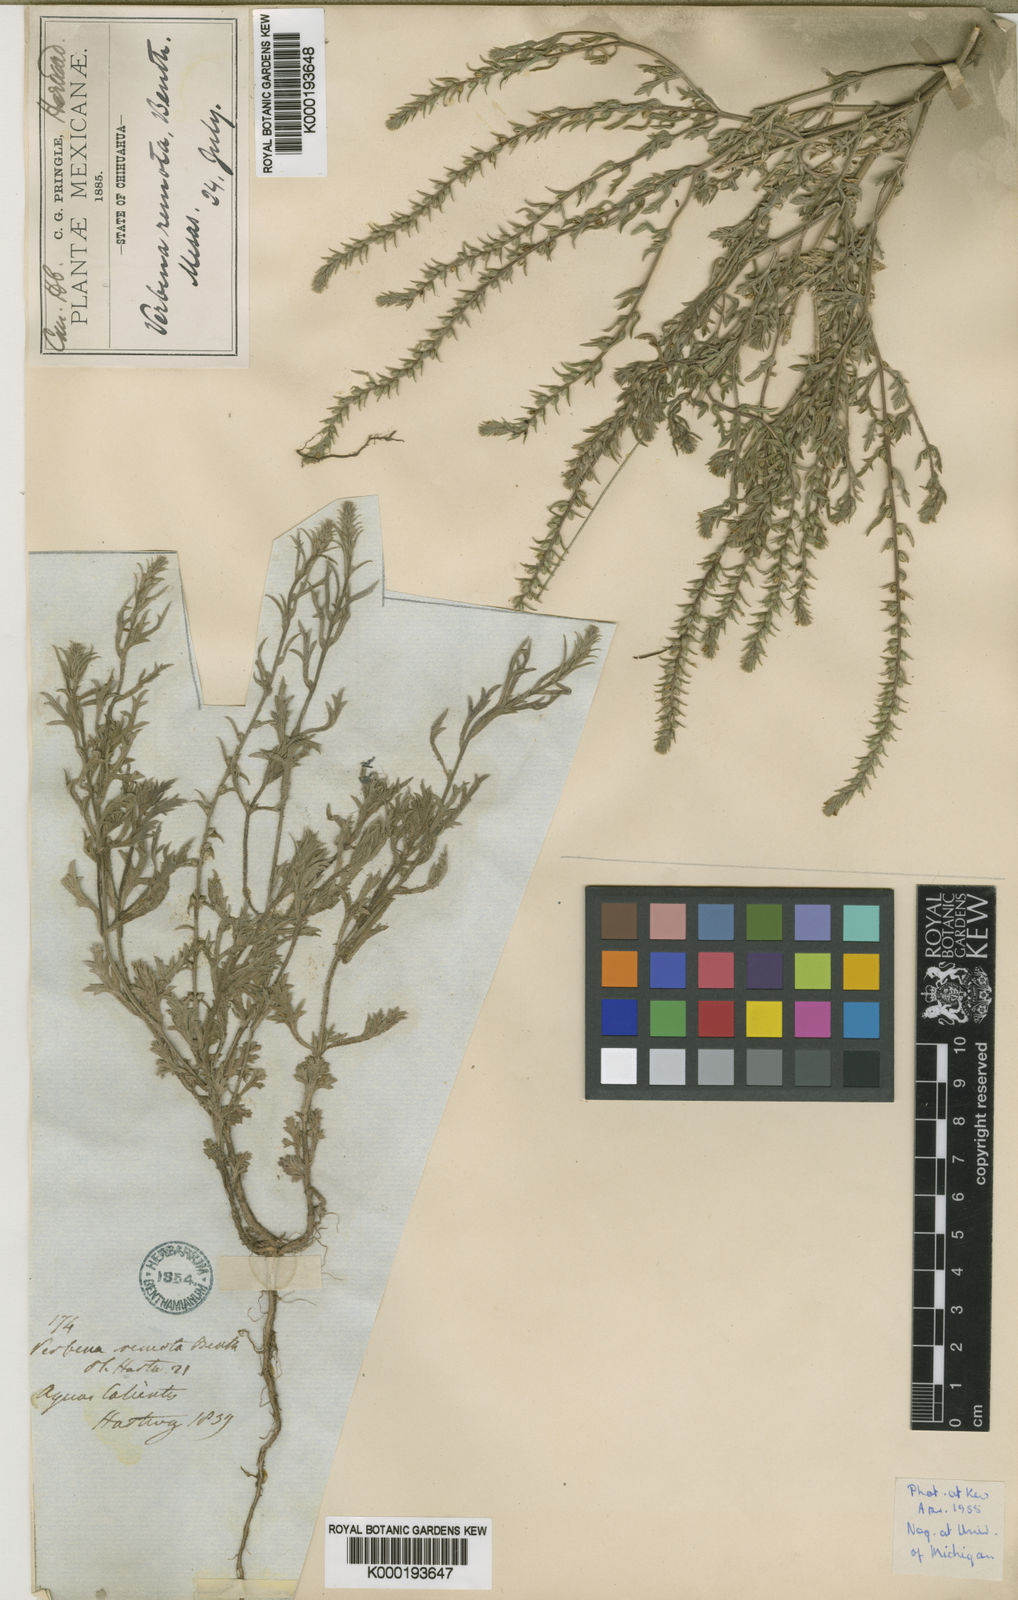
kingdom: Plantae
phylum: Tracheophyta
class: Magnoliopsida
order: Lamiales
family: Verbenaceae
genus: Verbena
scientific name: Verbena gracilis
